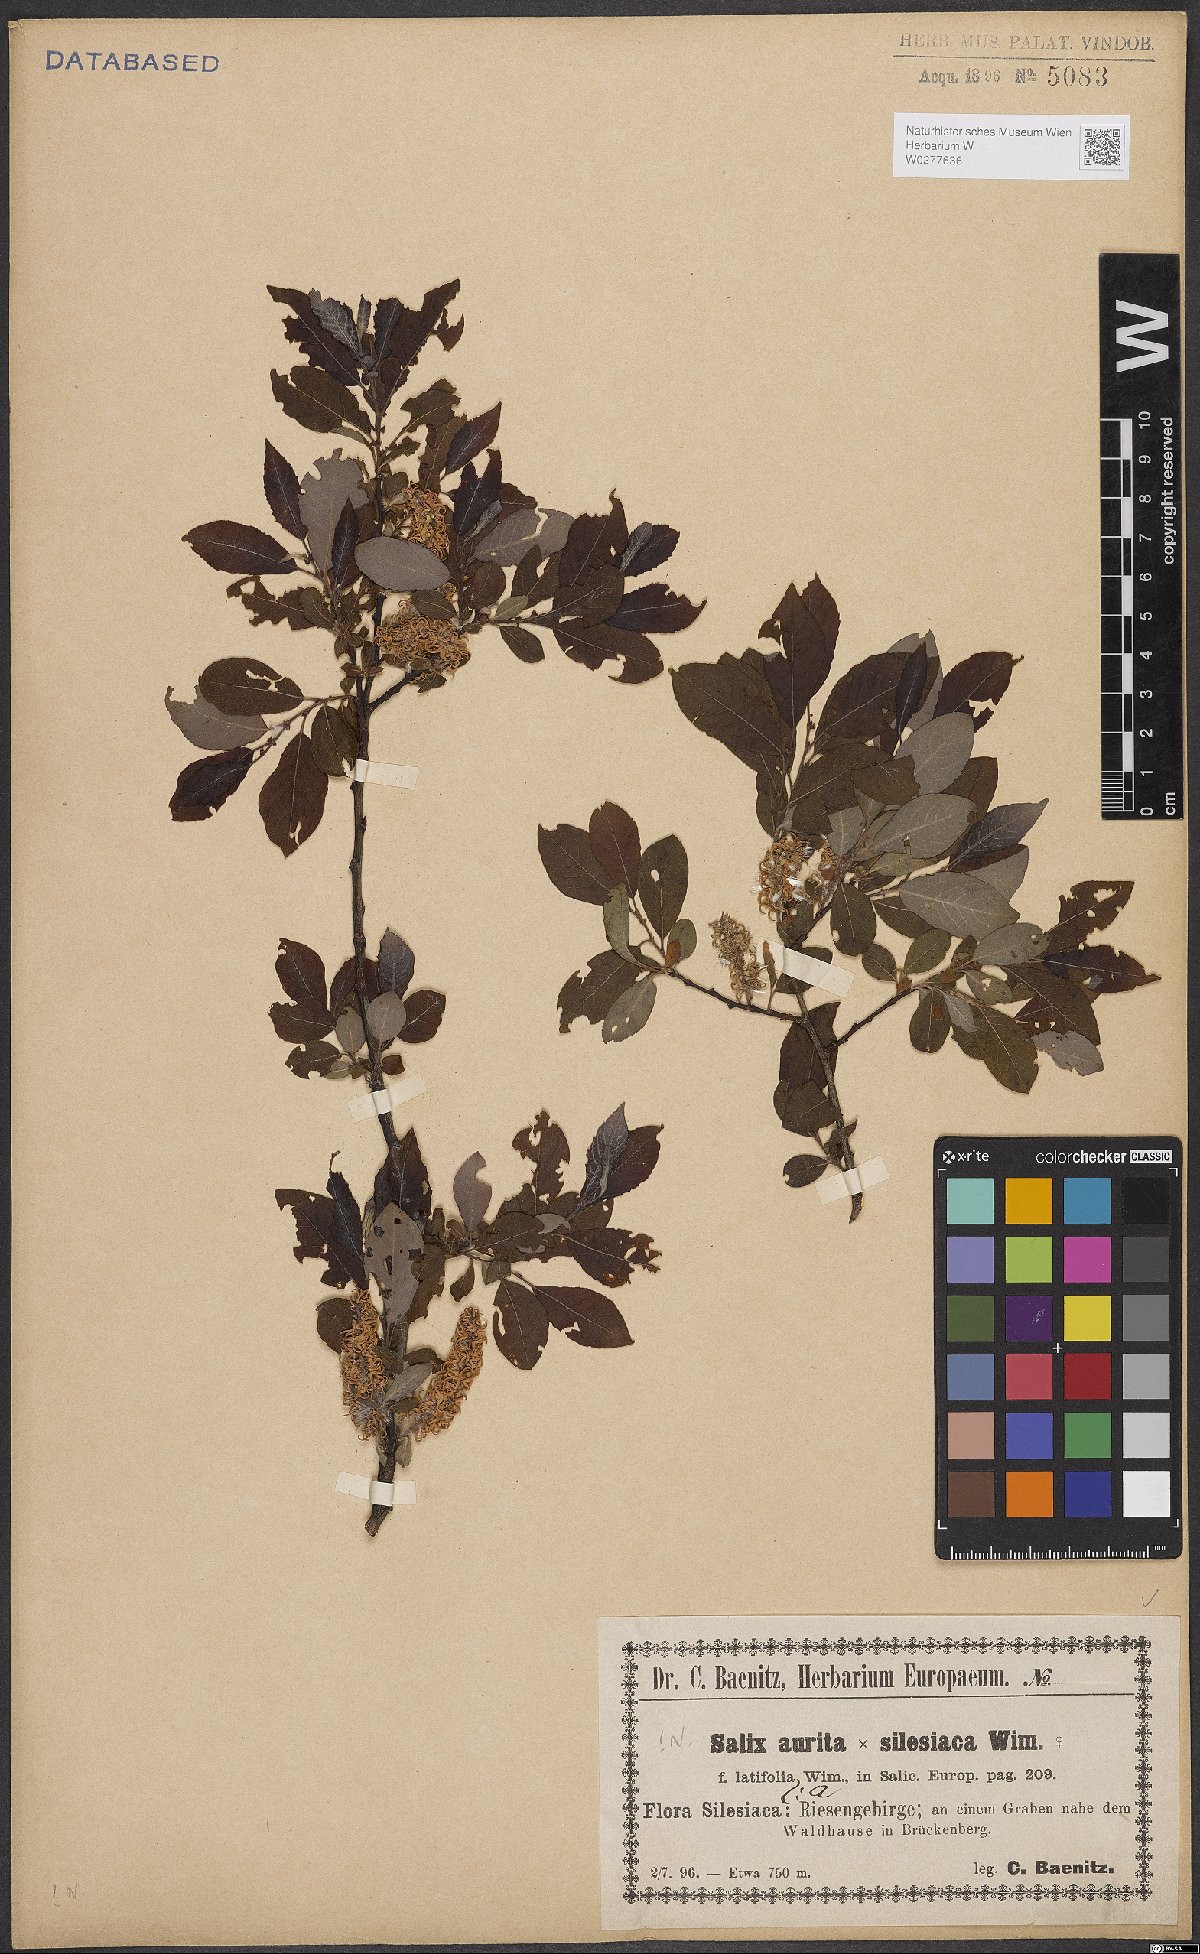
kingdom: Plantae
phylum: Tracheophyta
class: Magnoliopsida
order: Malpighiales
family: Salicaceae
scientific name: Salicaceae
